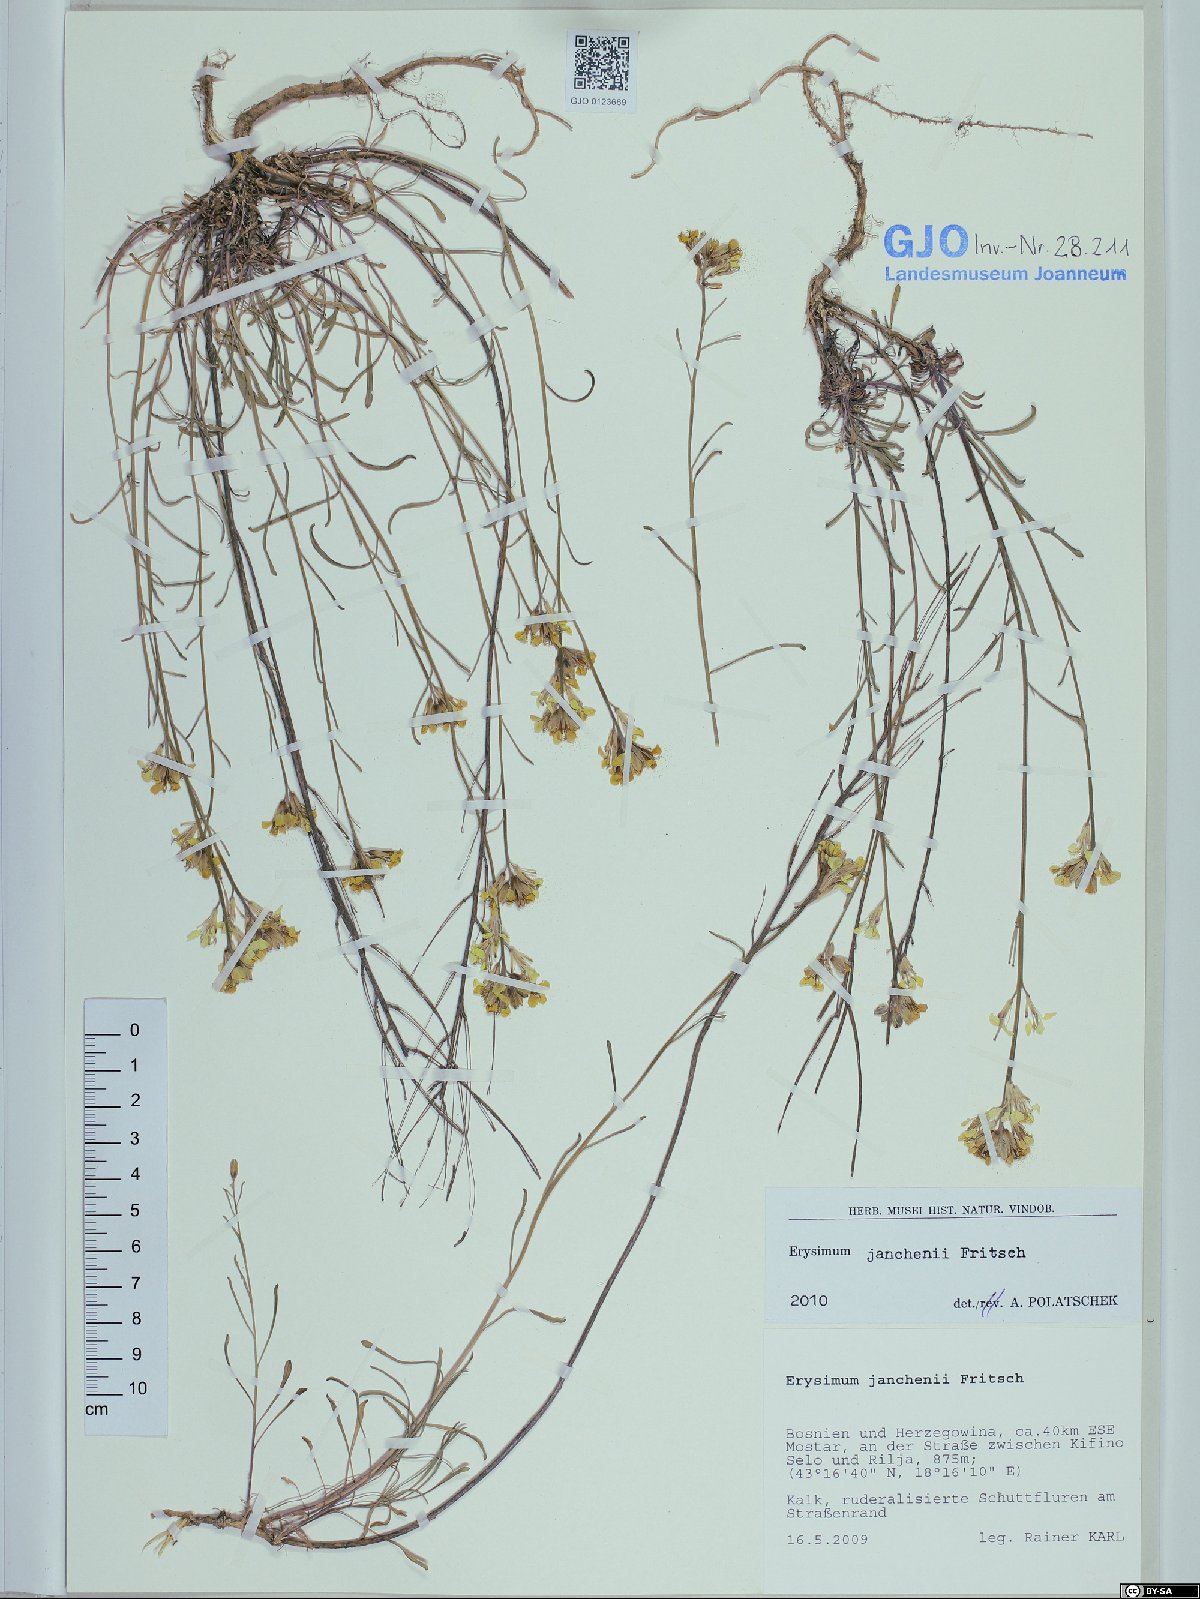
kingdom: Plantae
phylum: Tracheophyta
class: Magnoliopsida
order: Brassicales
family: Brassicaceae
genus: Erysimum
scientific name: Erysimum linariifolium
